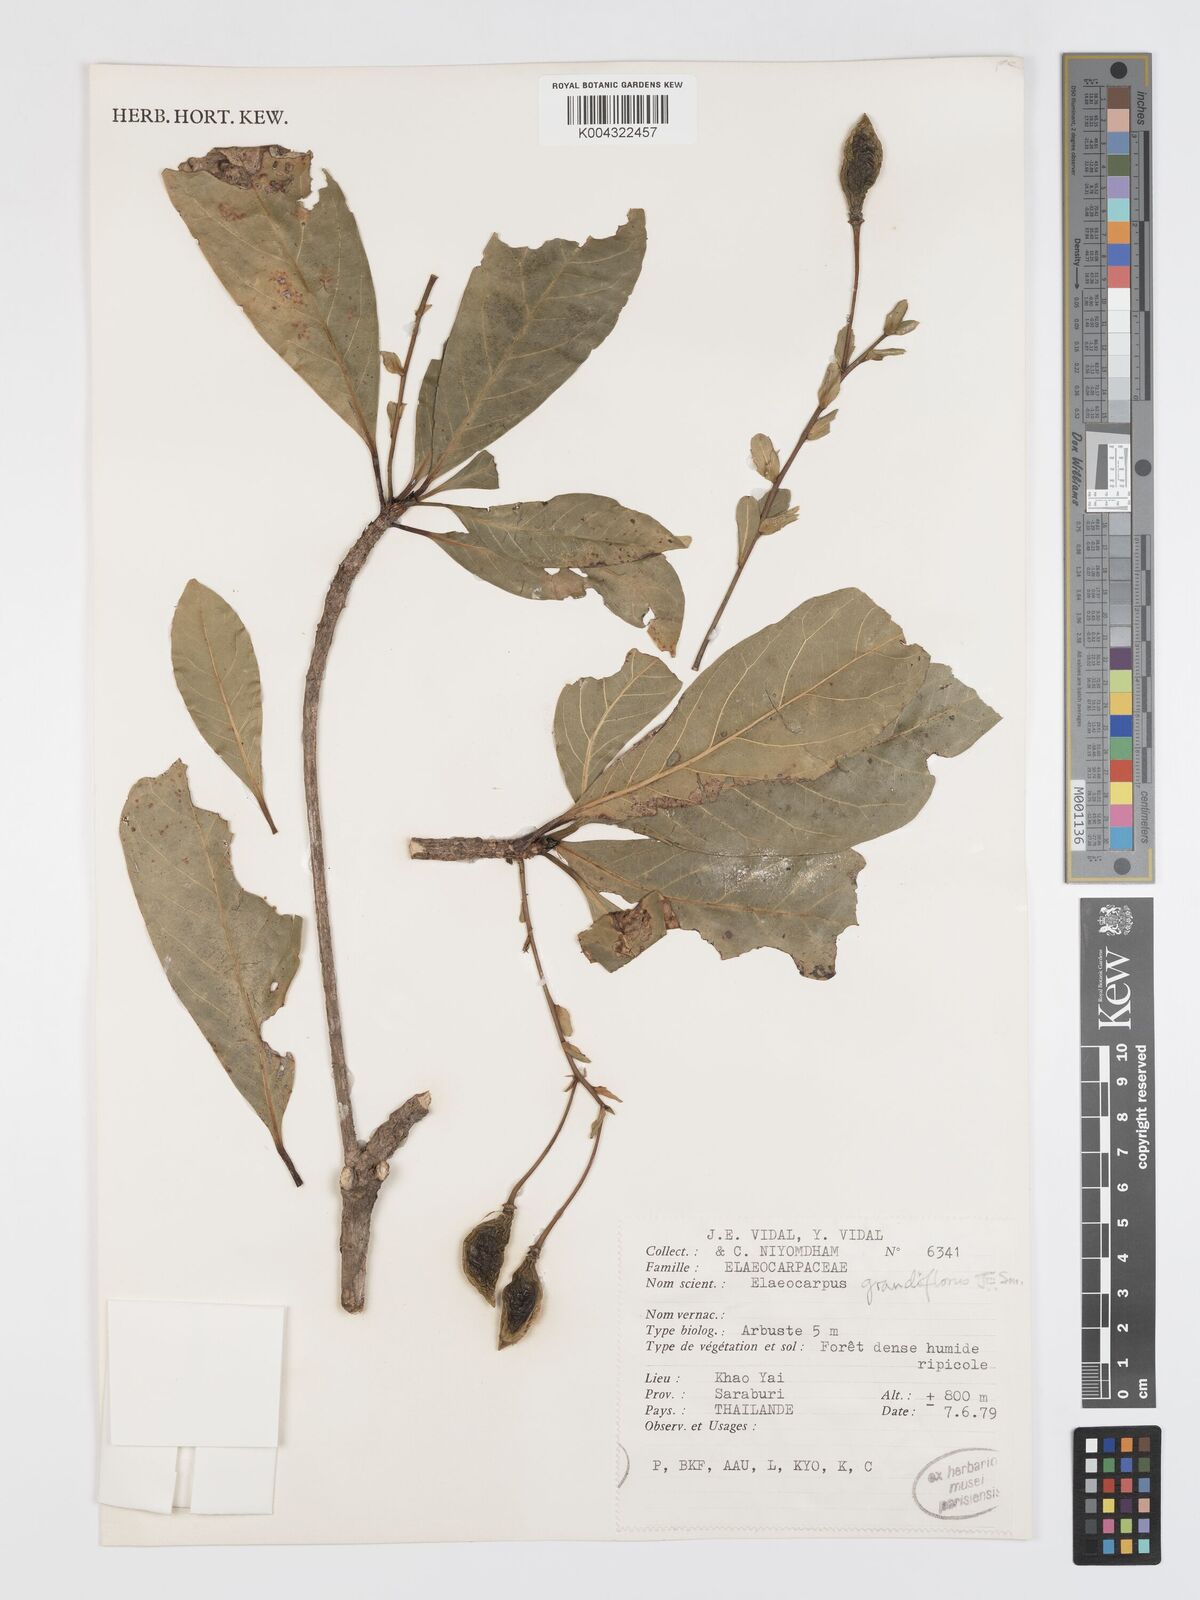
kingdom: Plantae
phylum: Tracheophyta
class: Magnoliopsida
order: Oxalidales
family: Elaeocarpaceae
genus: Elaeocarpus
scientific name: Elaeocarpus grandiflorus
